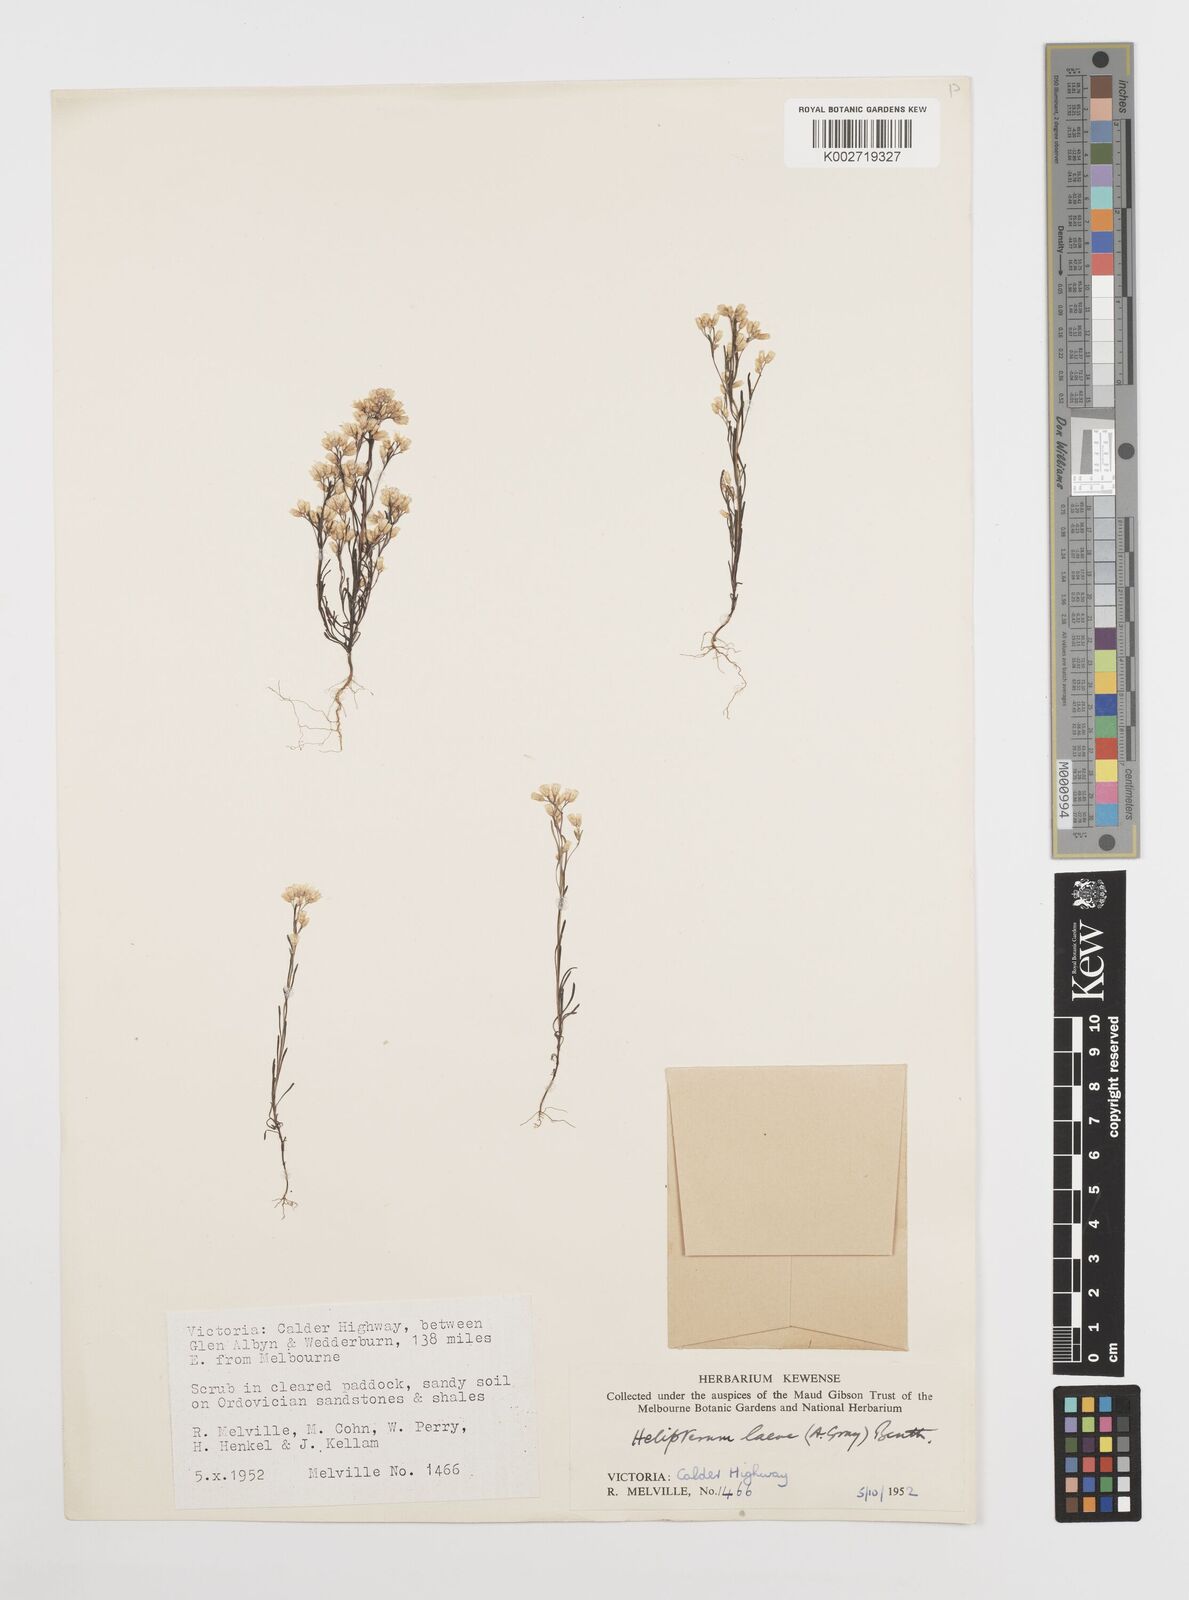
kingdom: Plantae
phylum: Tracheophyta
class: Magnoliopsida
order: Asterales
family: Asteraceae
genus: Rhodanthe
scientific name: Rhodanthe laevis
